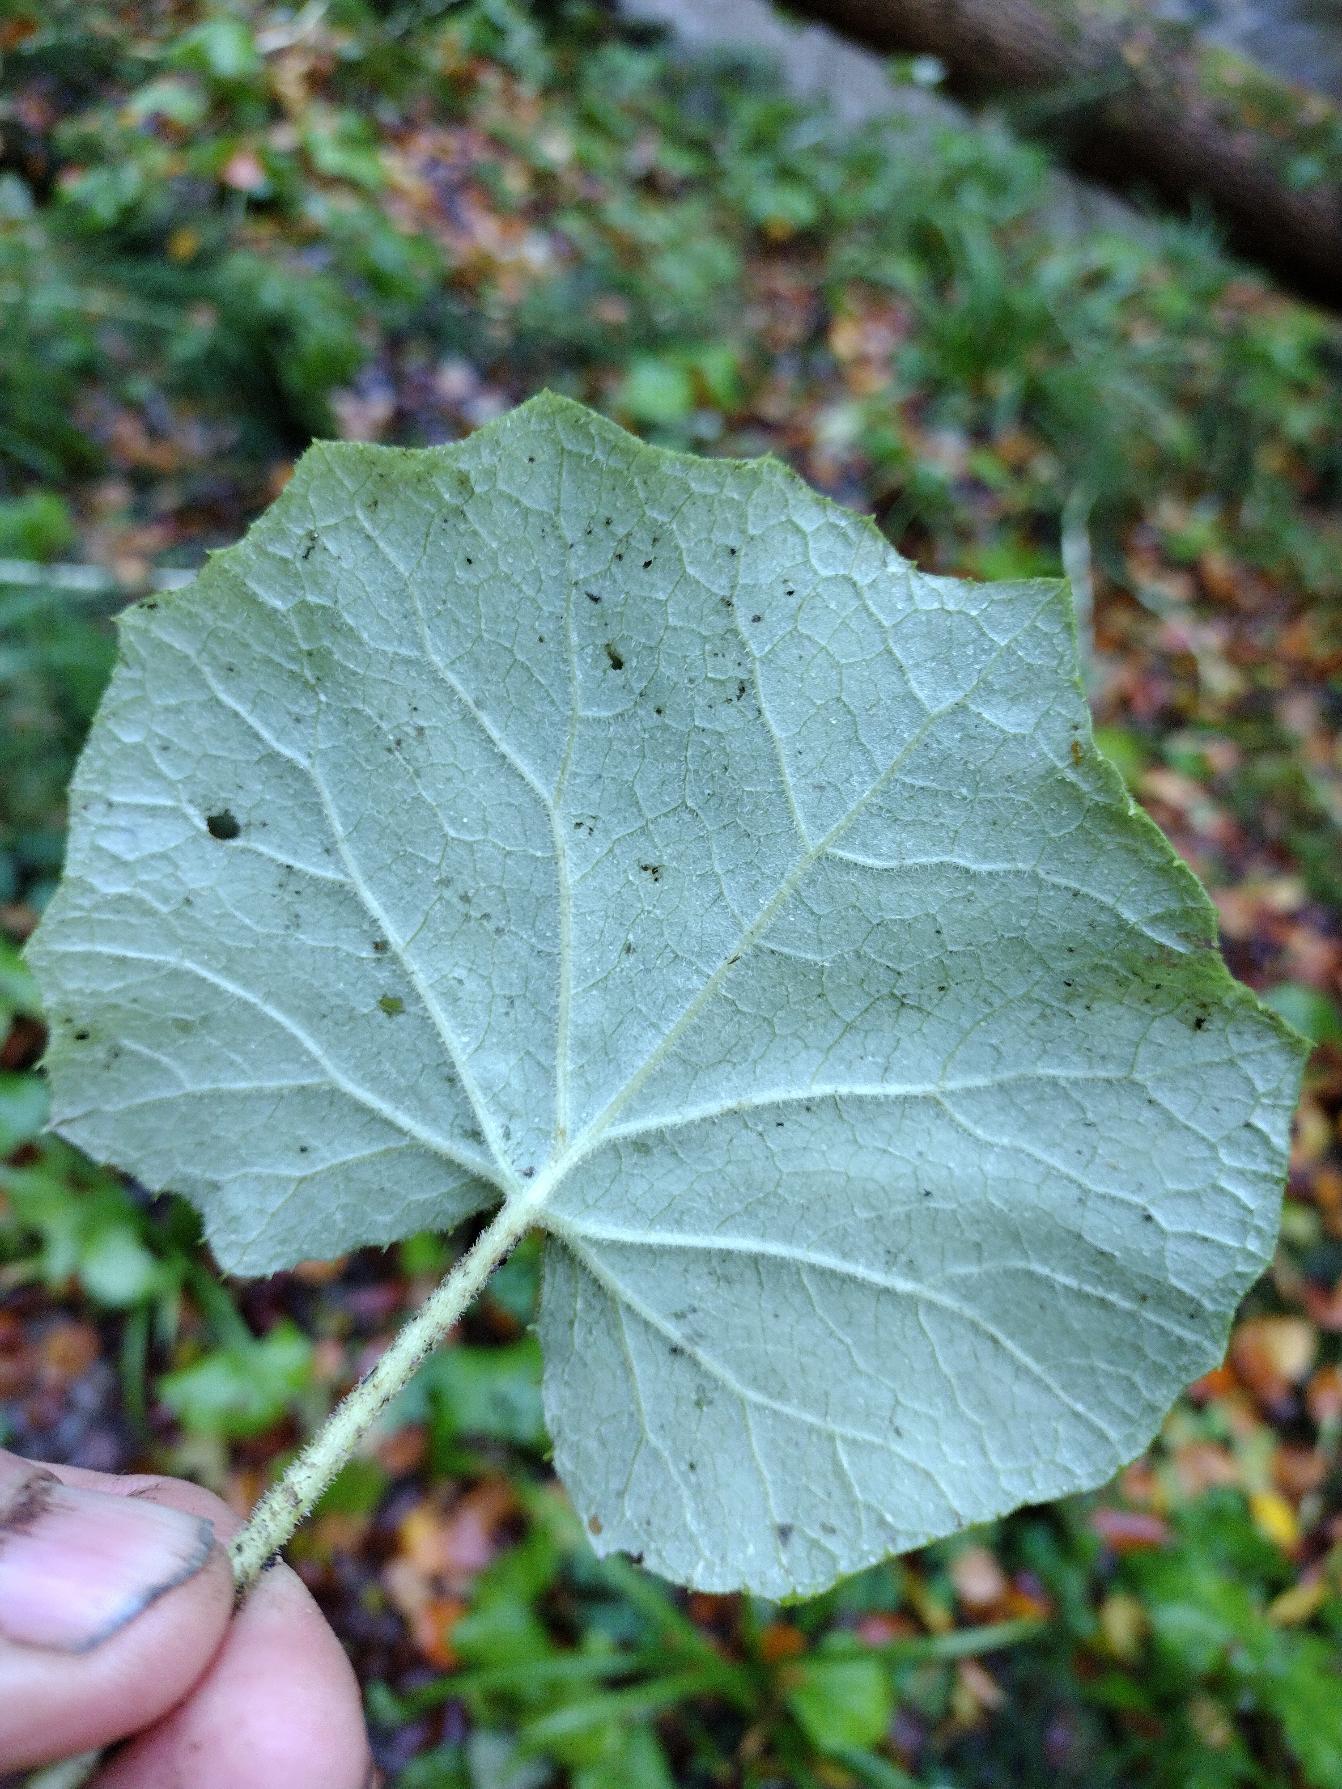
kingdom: Plantae
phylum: Tracheophyta
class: Magnoliopsida
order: Asterales
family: Asteraceae
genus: Petasites
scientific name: Petasites albus
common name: Hvid hestehov
